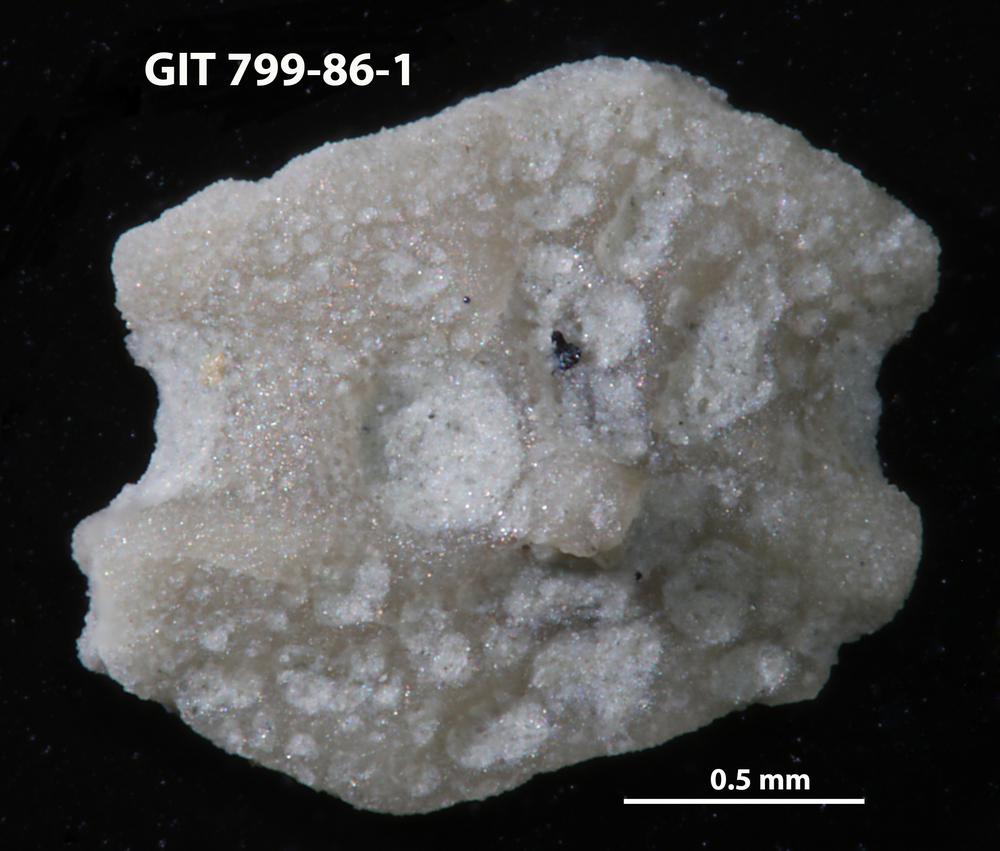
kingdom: Animalia
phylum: Echinodermata
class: Echinoidea
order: Bothriocidaroida
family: Bothriocidaridae
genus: Neobothriocidaris
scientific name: Neobothriocidaris
